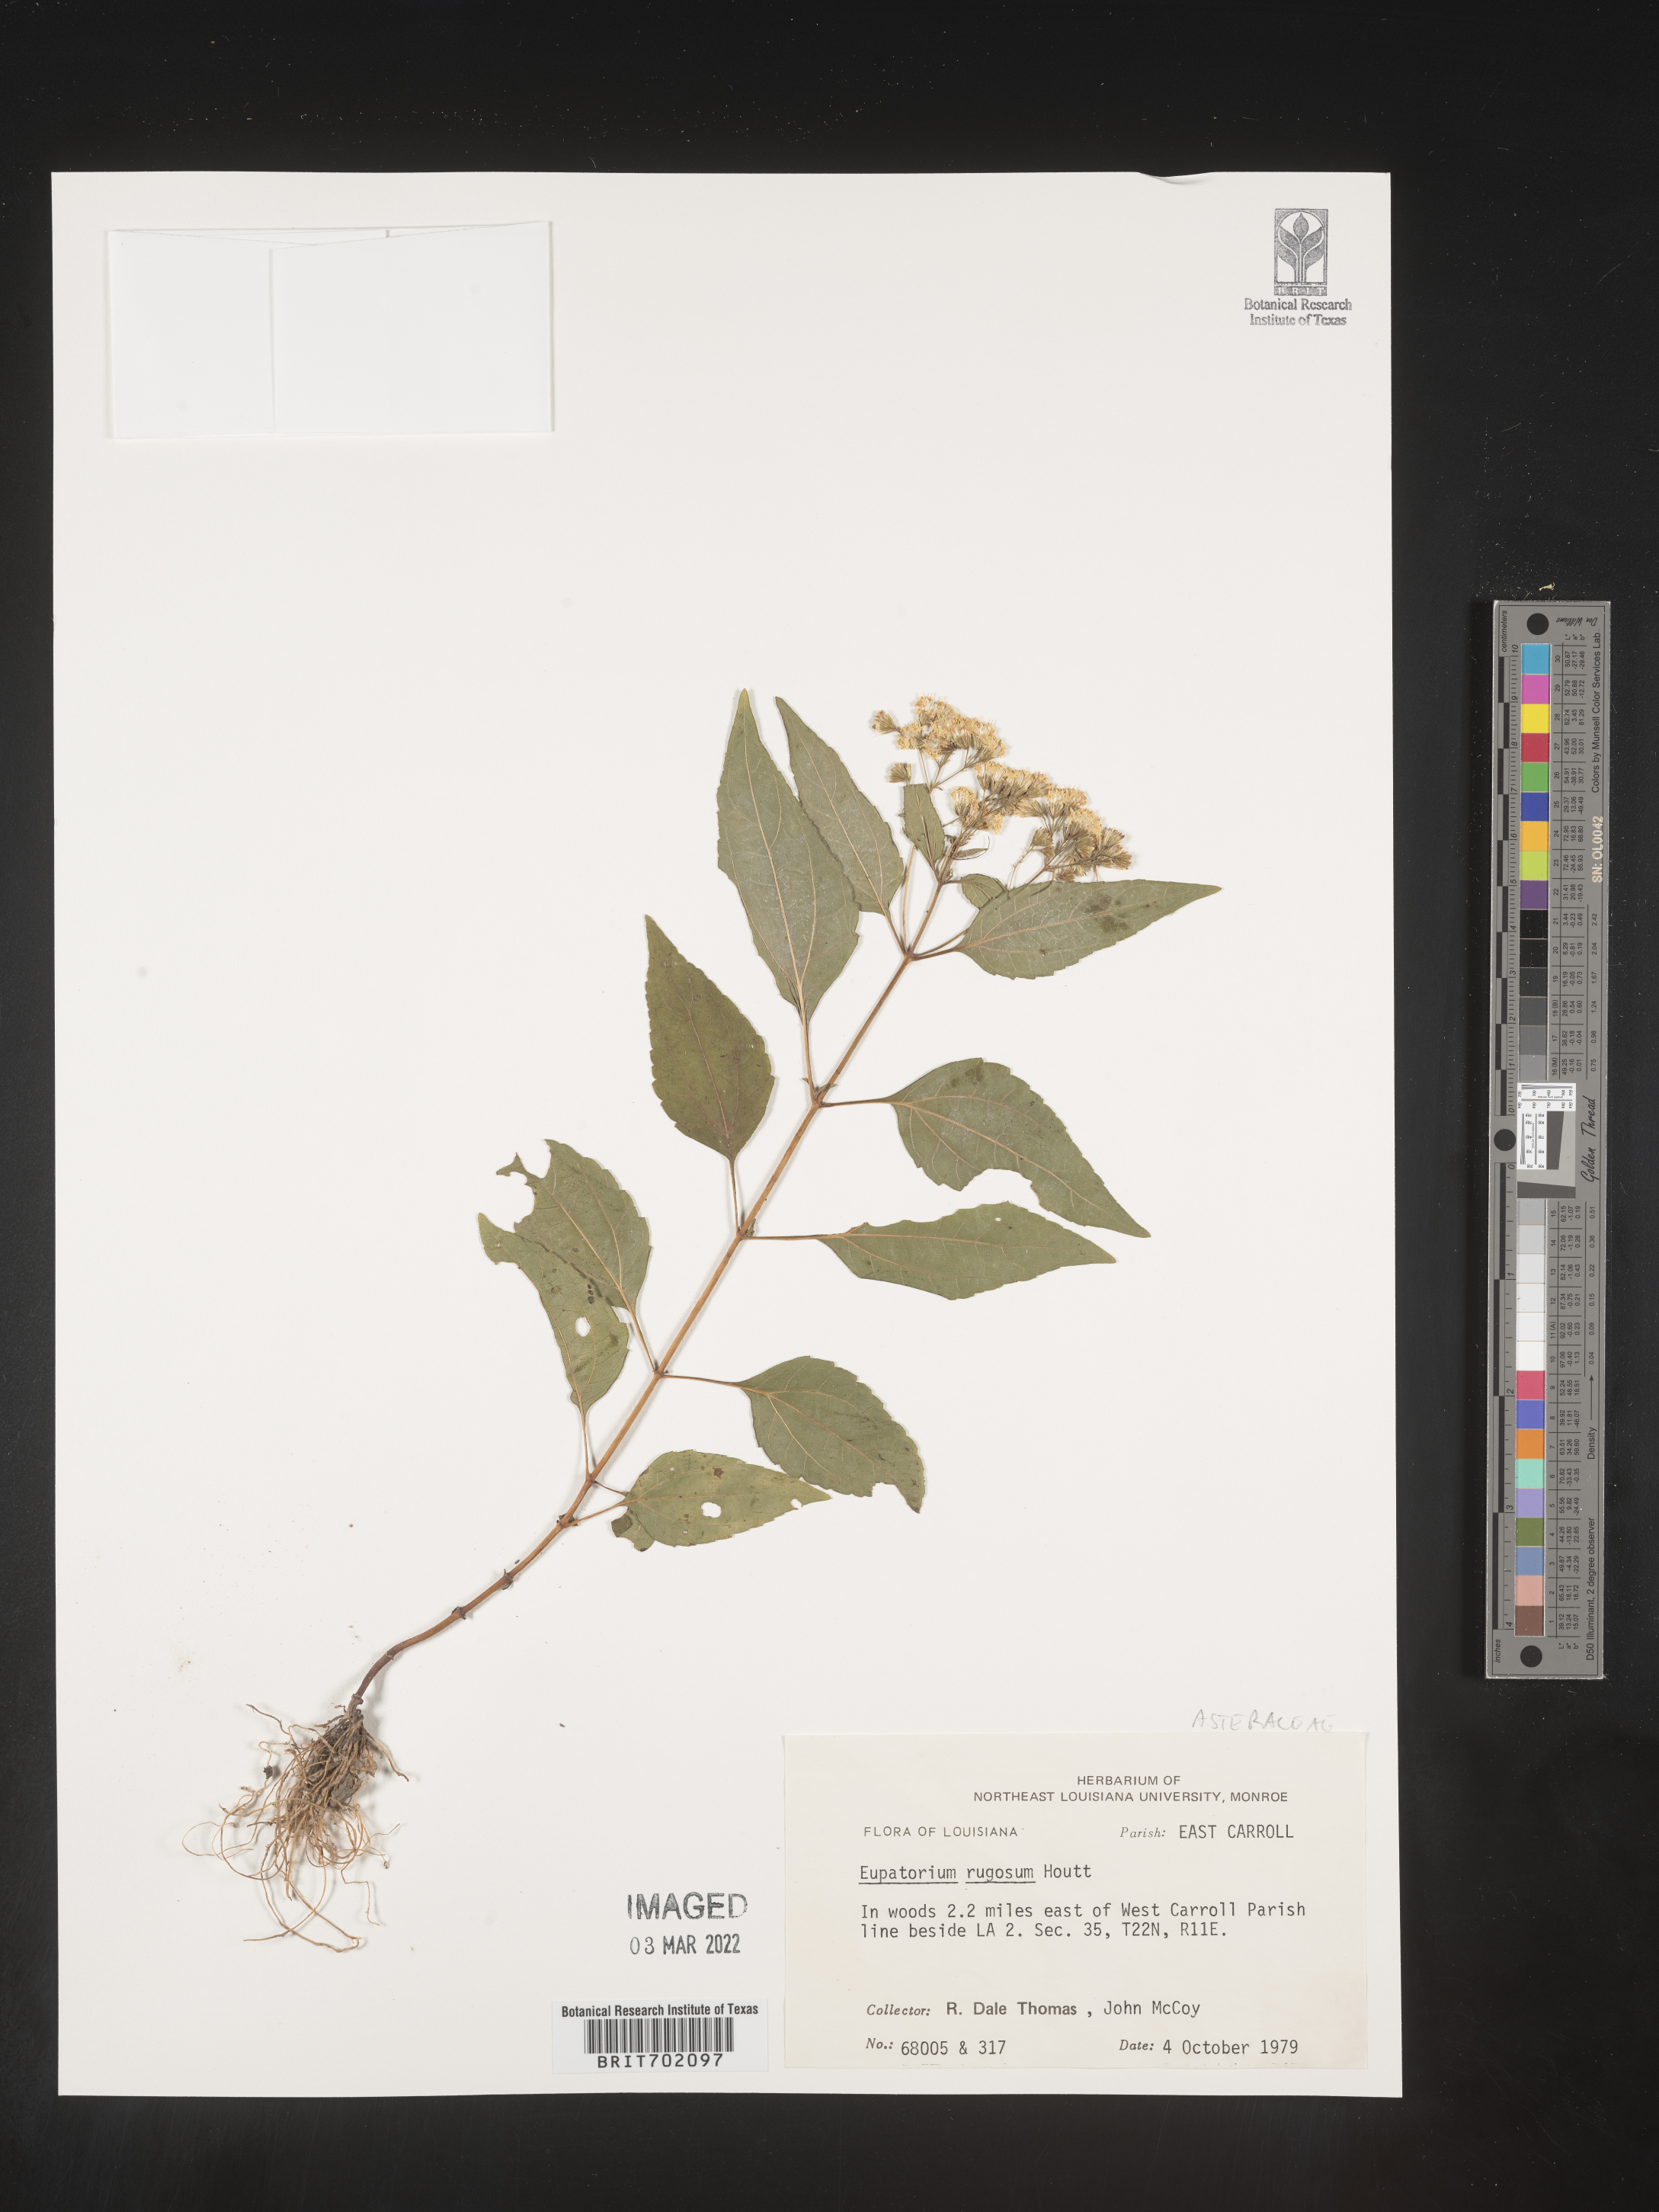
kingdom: Plantae
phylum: Tracheophyta
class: Magnoliopsida
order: Asterales
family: Asteraceae
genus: Cronquistianthus
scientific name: Cronquistianthus bulliferus
